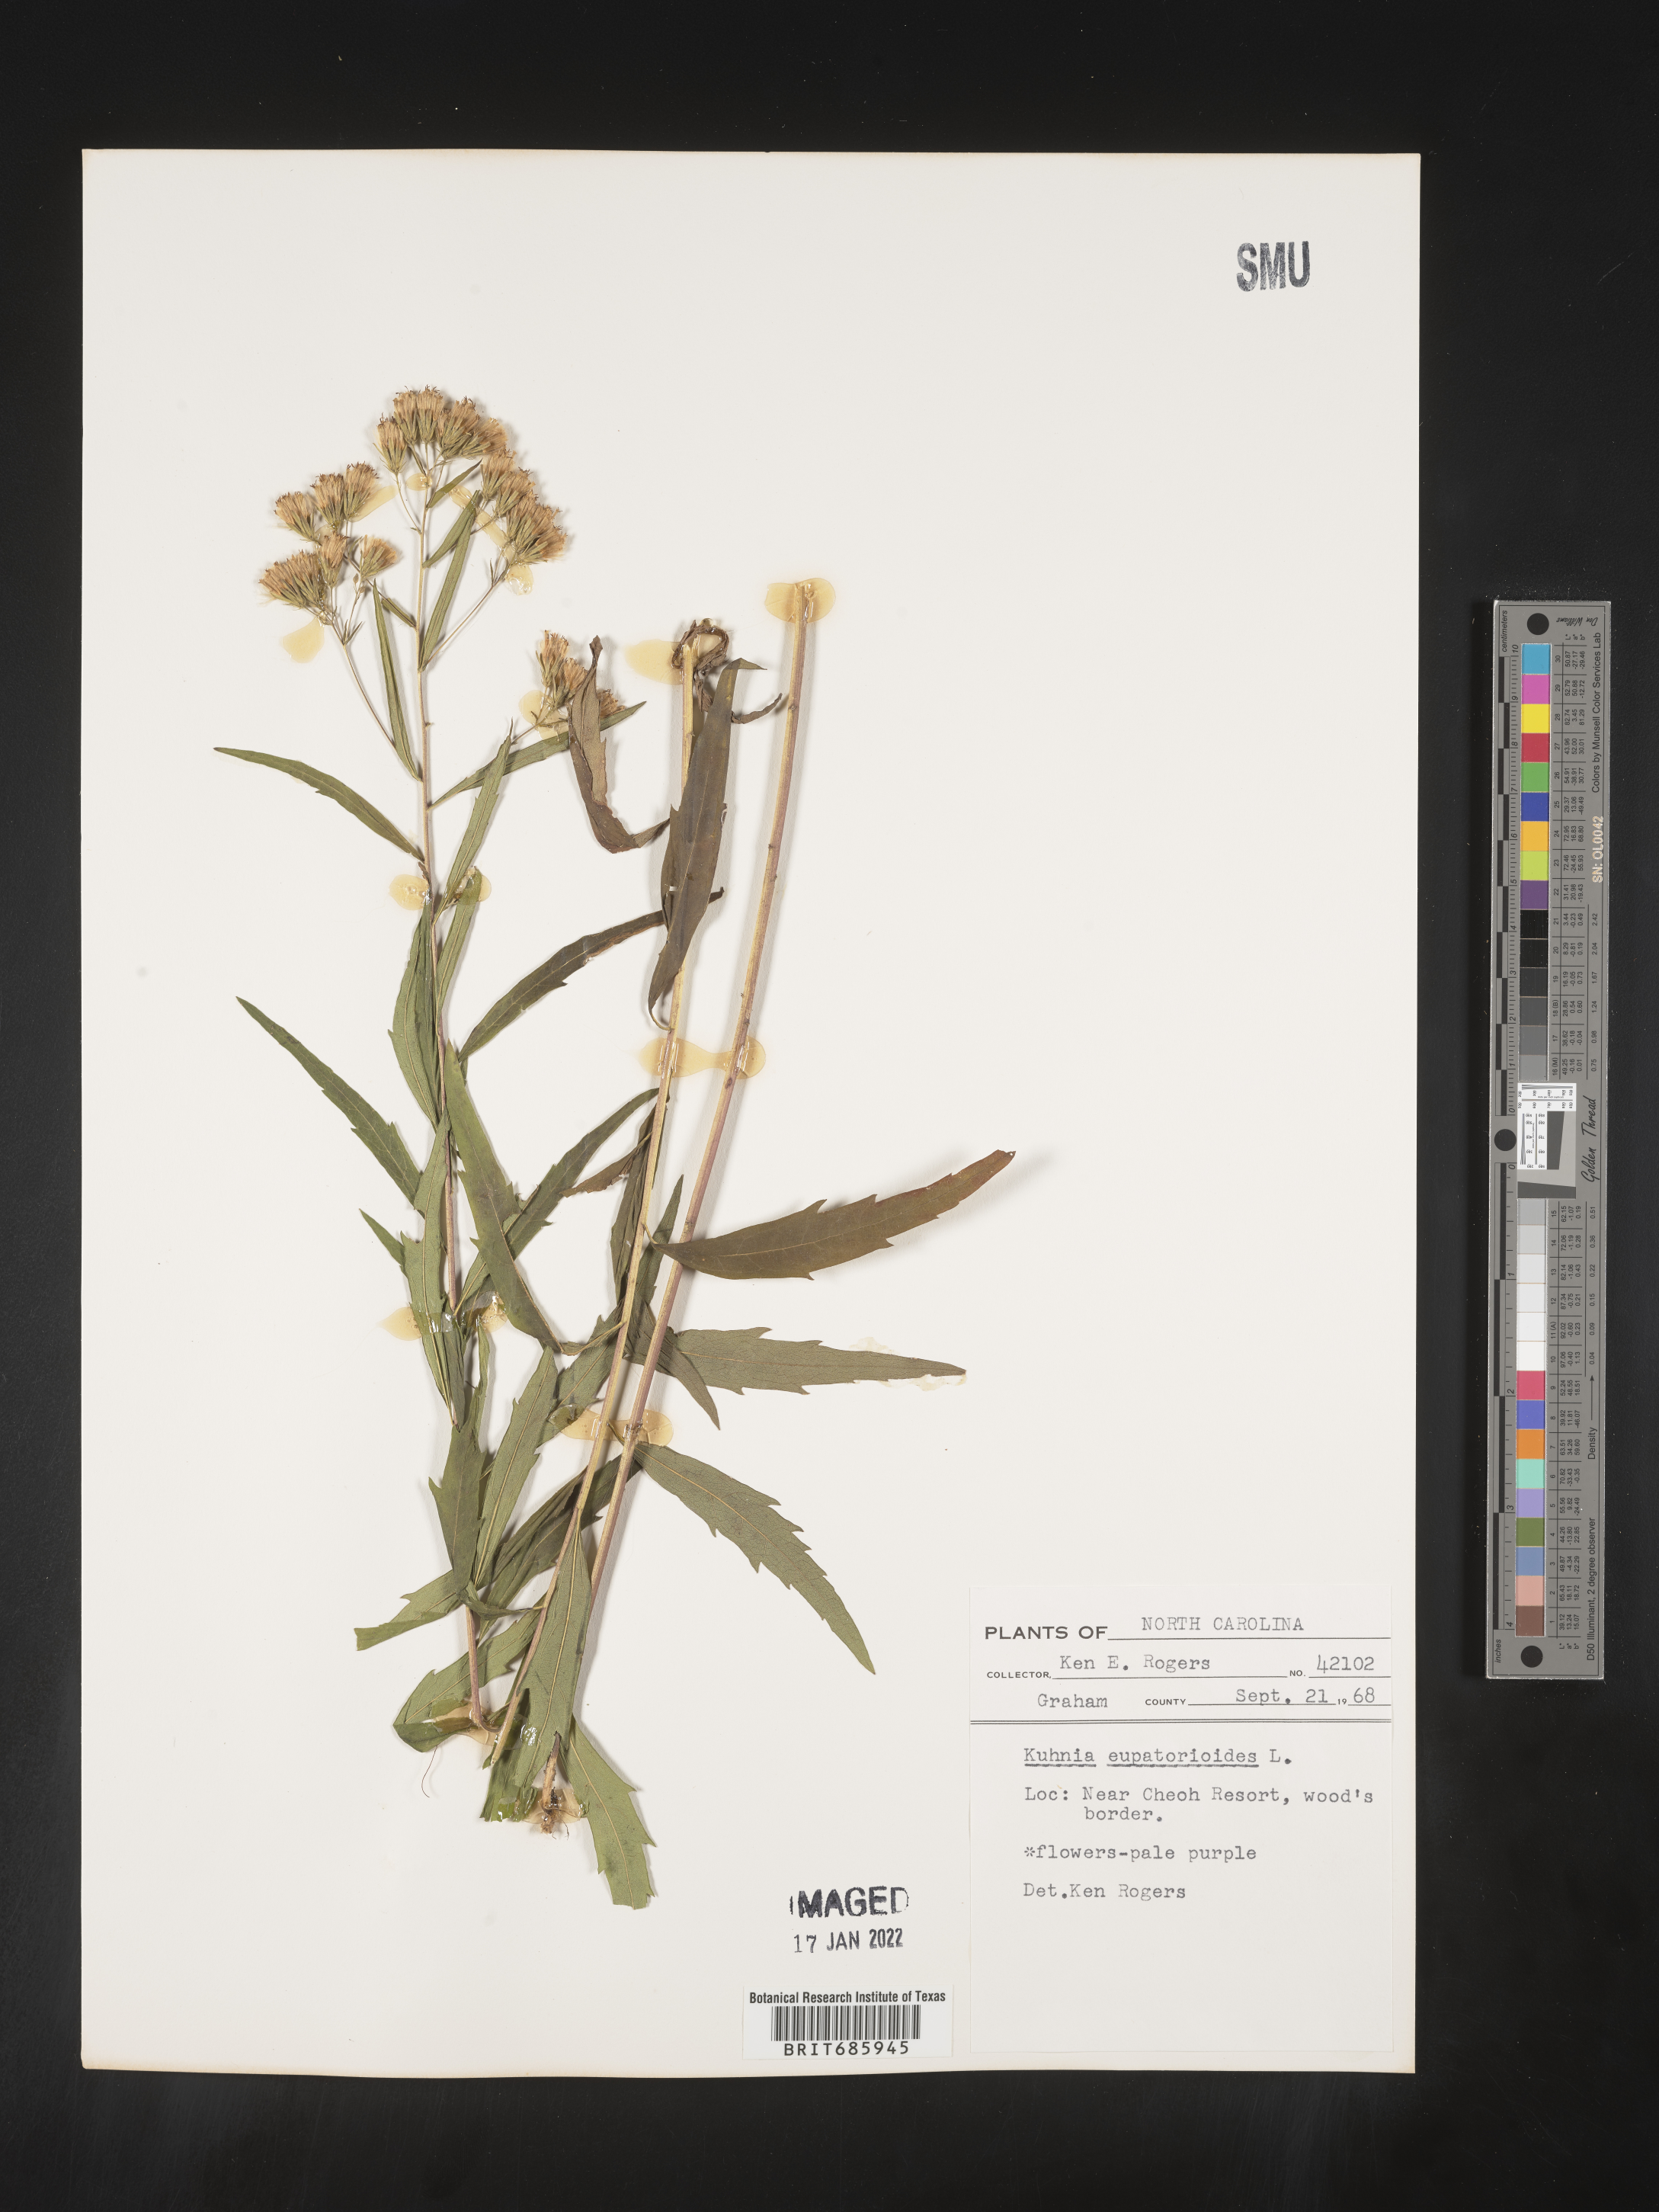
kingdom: Plantae
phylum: Tracheophyta
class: Magnoliopsida
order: Asterales
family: Asteraceae
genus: Brickellia
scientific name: Brickellia eupatorioides
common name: False boneset
